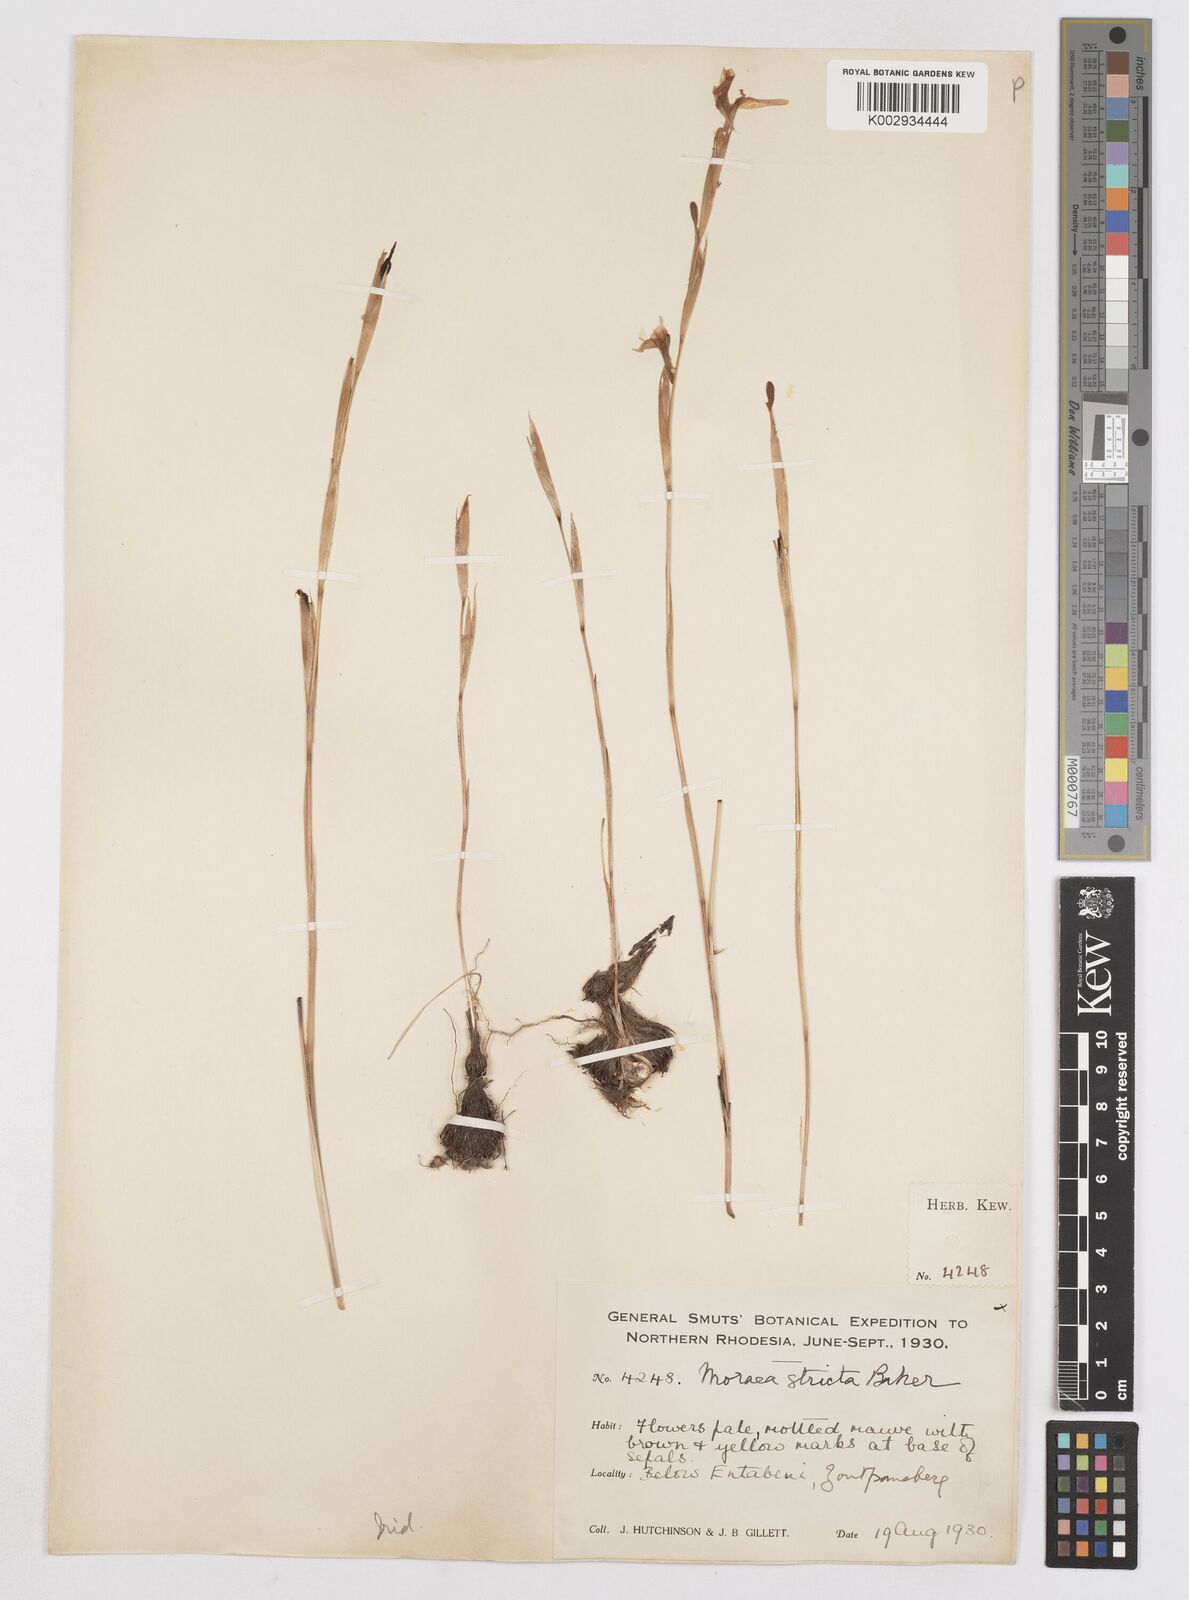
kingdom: Plantae
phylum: Tracheophyta
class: Liliopsida
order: Asparagales
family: Iridaceae
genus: Moraea
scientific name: Moraea stricta
